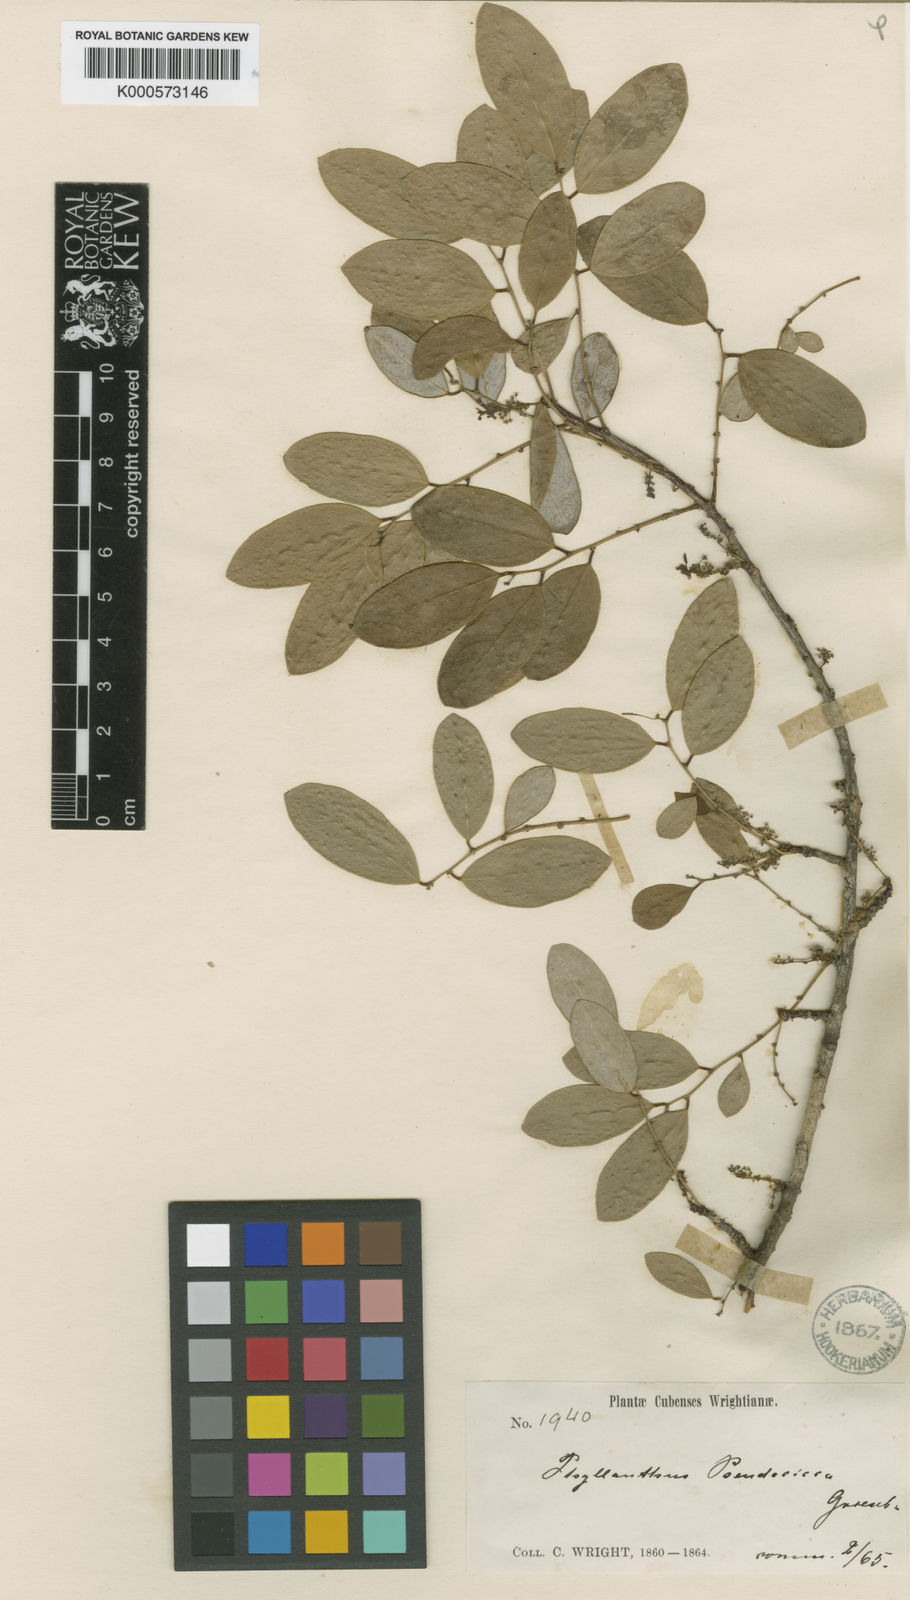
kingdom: Plantae
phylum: Tracheophyta
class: Magnoliopsida
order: Malpighiales
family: Phyllanthaceae
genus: Phyllanthus
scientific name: Phyllanthus pseudocicca
